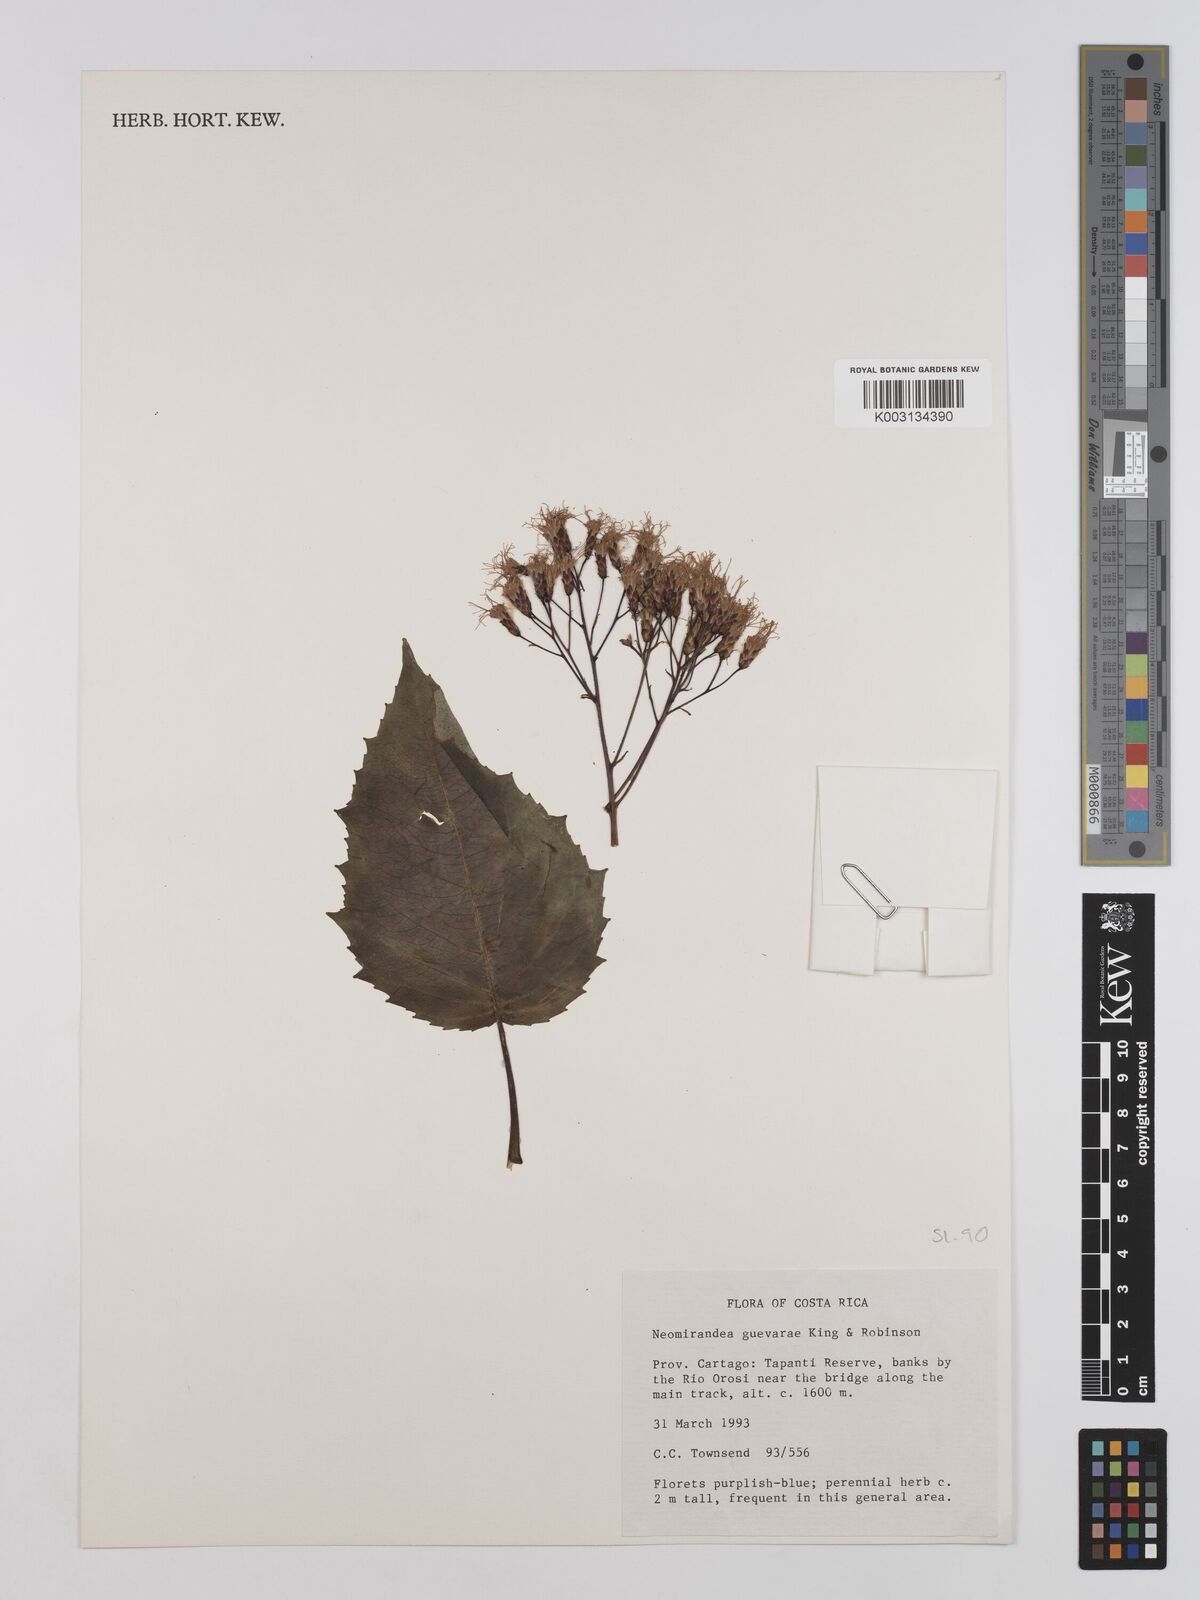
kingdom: Plantae
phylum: Tracheophyta
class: Magnoliopsida
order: Asterales
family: Asteraceae
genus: Neomirandea
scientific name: Neomirandea guevarae
